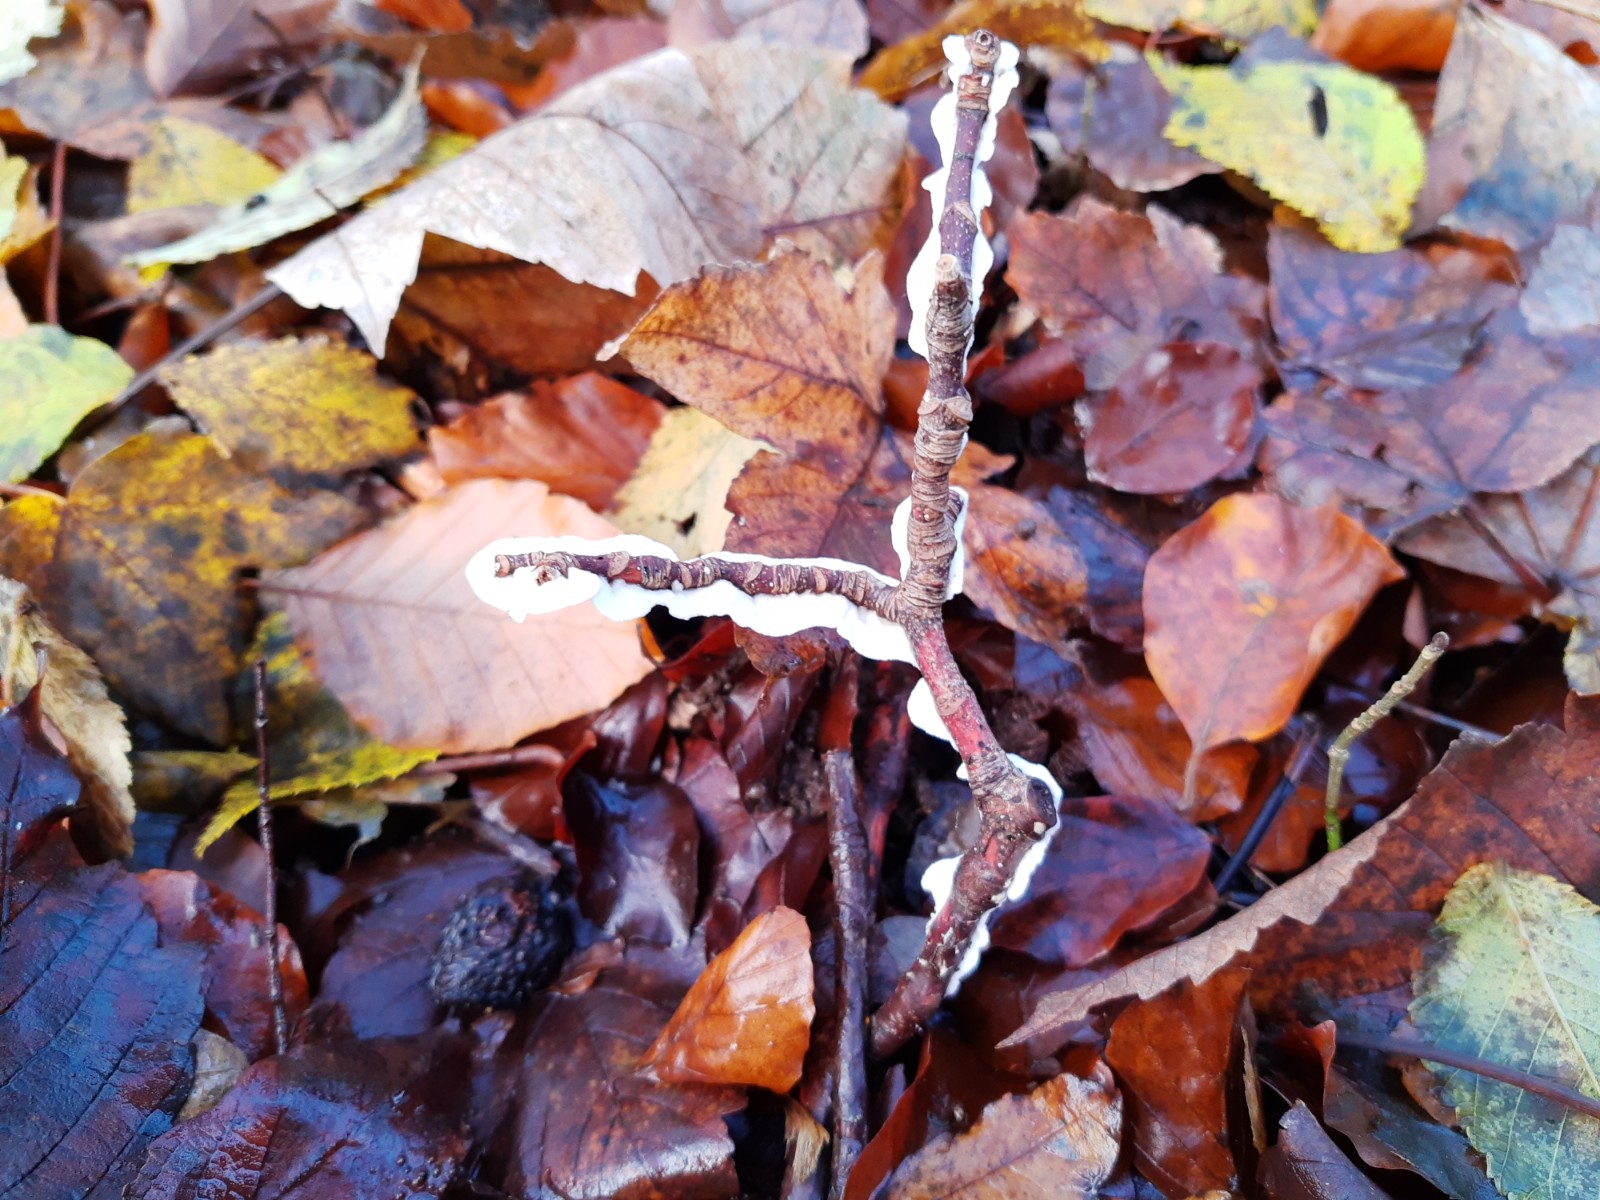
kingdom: Fungi
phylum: Basidiomycota
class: Agaricomycetes
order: Polyporales
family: Irpicaceae
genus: Byssomerulius
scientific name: Byssomerulius corium
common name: læder-åresvamp
